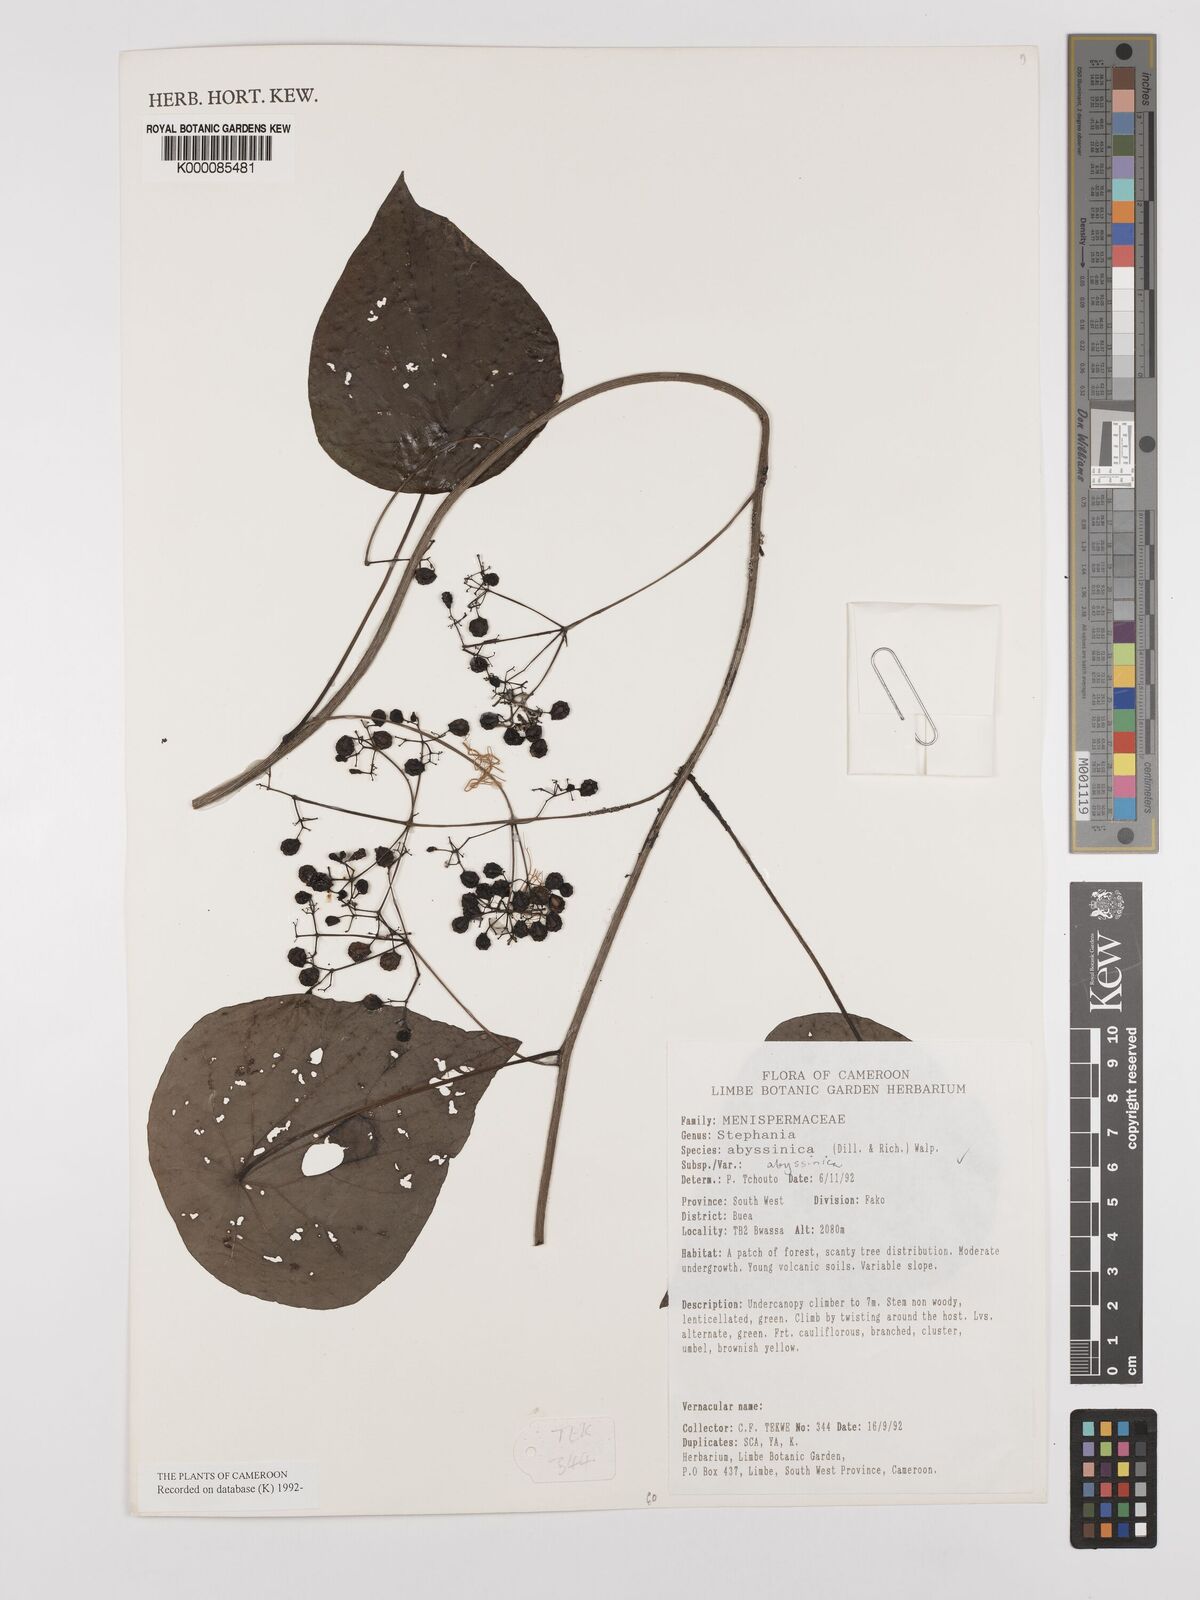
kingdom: Plantae
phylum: Tracheophyta
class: Magnoliopsida
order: Ranunculales
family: Menispermaceae
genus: Stephania
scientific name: Stephania abyssinica
